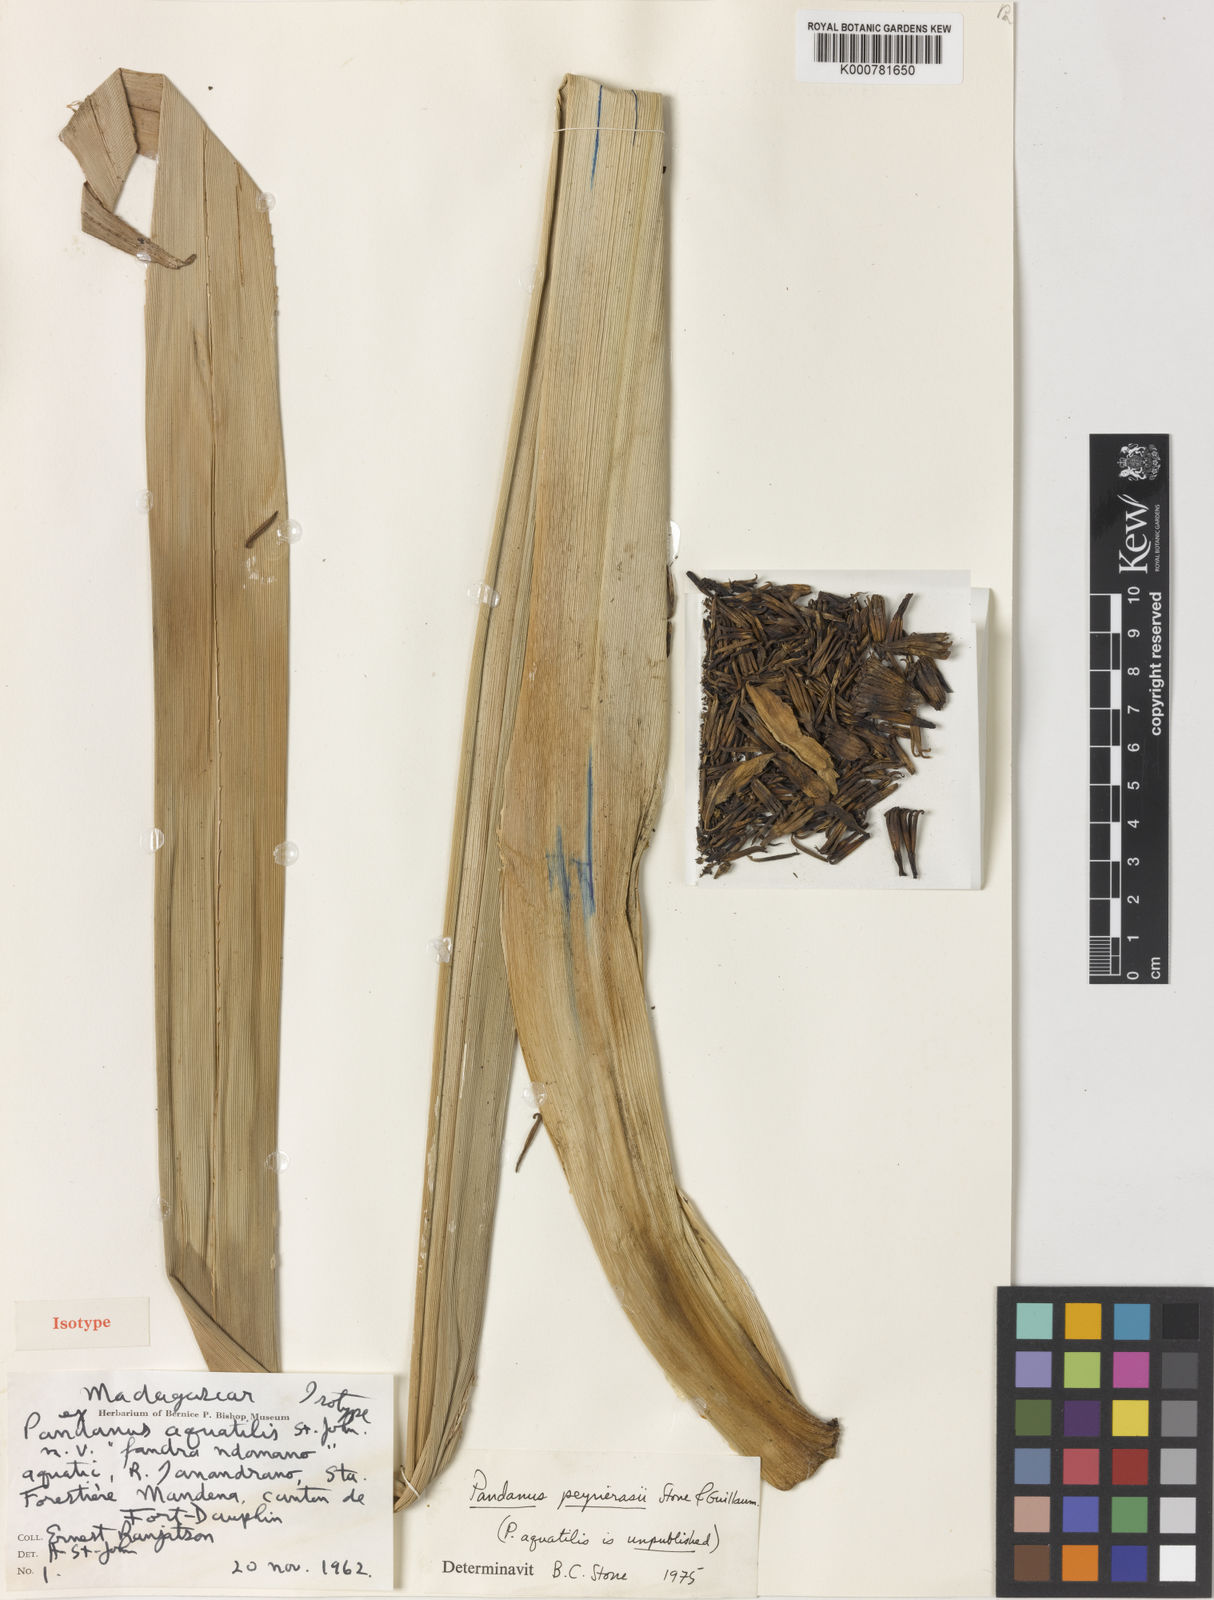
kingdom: Plantae
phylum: Tracheophyta
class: Liliopsida
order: Pandanales
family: Pandanaceae
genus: Pandanus
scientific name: Pandanus peyrierasii
